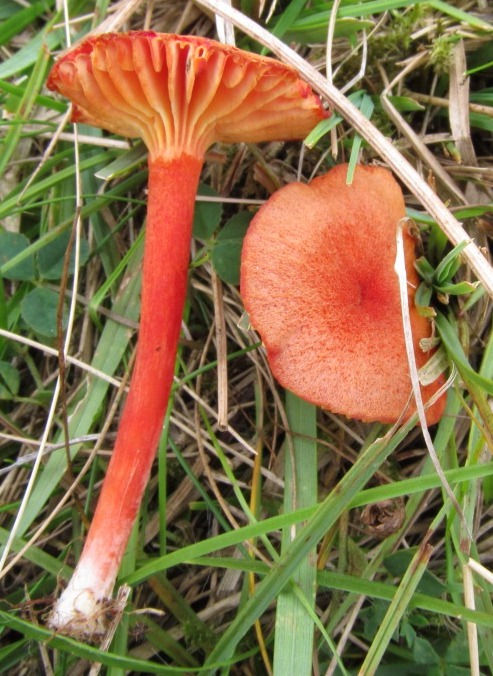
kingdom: Fungi
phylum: Basidiomycota
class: Agaricomycetes
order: Agaricales
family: Hygrophoraceae
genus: Hygrocybe
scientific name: Hygrocybe helobia
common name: hvidløgs-vokshat
